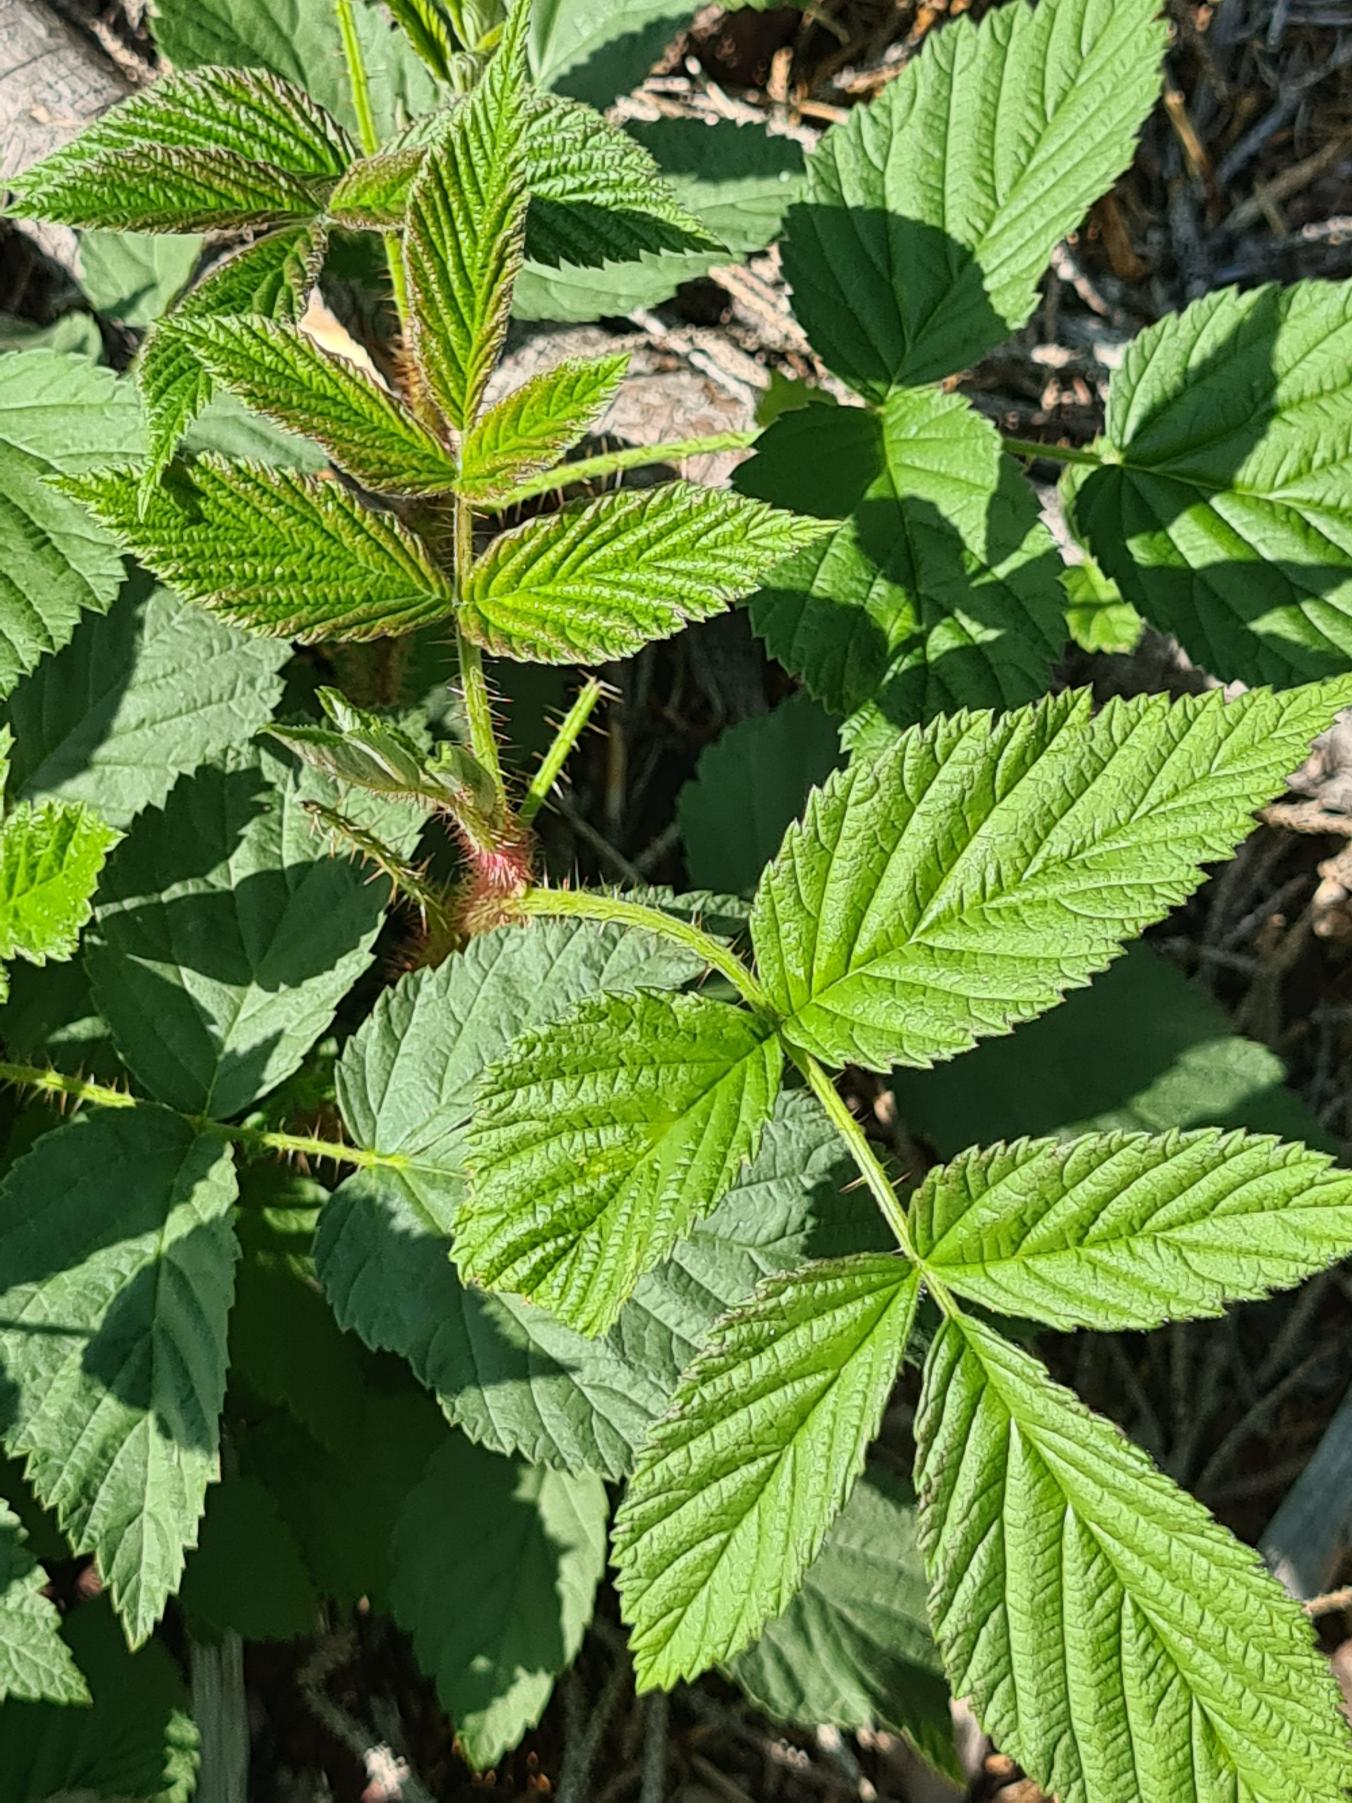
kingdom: Plantae
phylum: Tracheophyta
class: Magnoliopsida
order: Rosales
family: Rosaceae
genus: Rubus
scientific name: Rubus idaeus
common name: Hindbær
